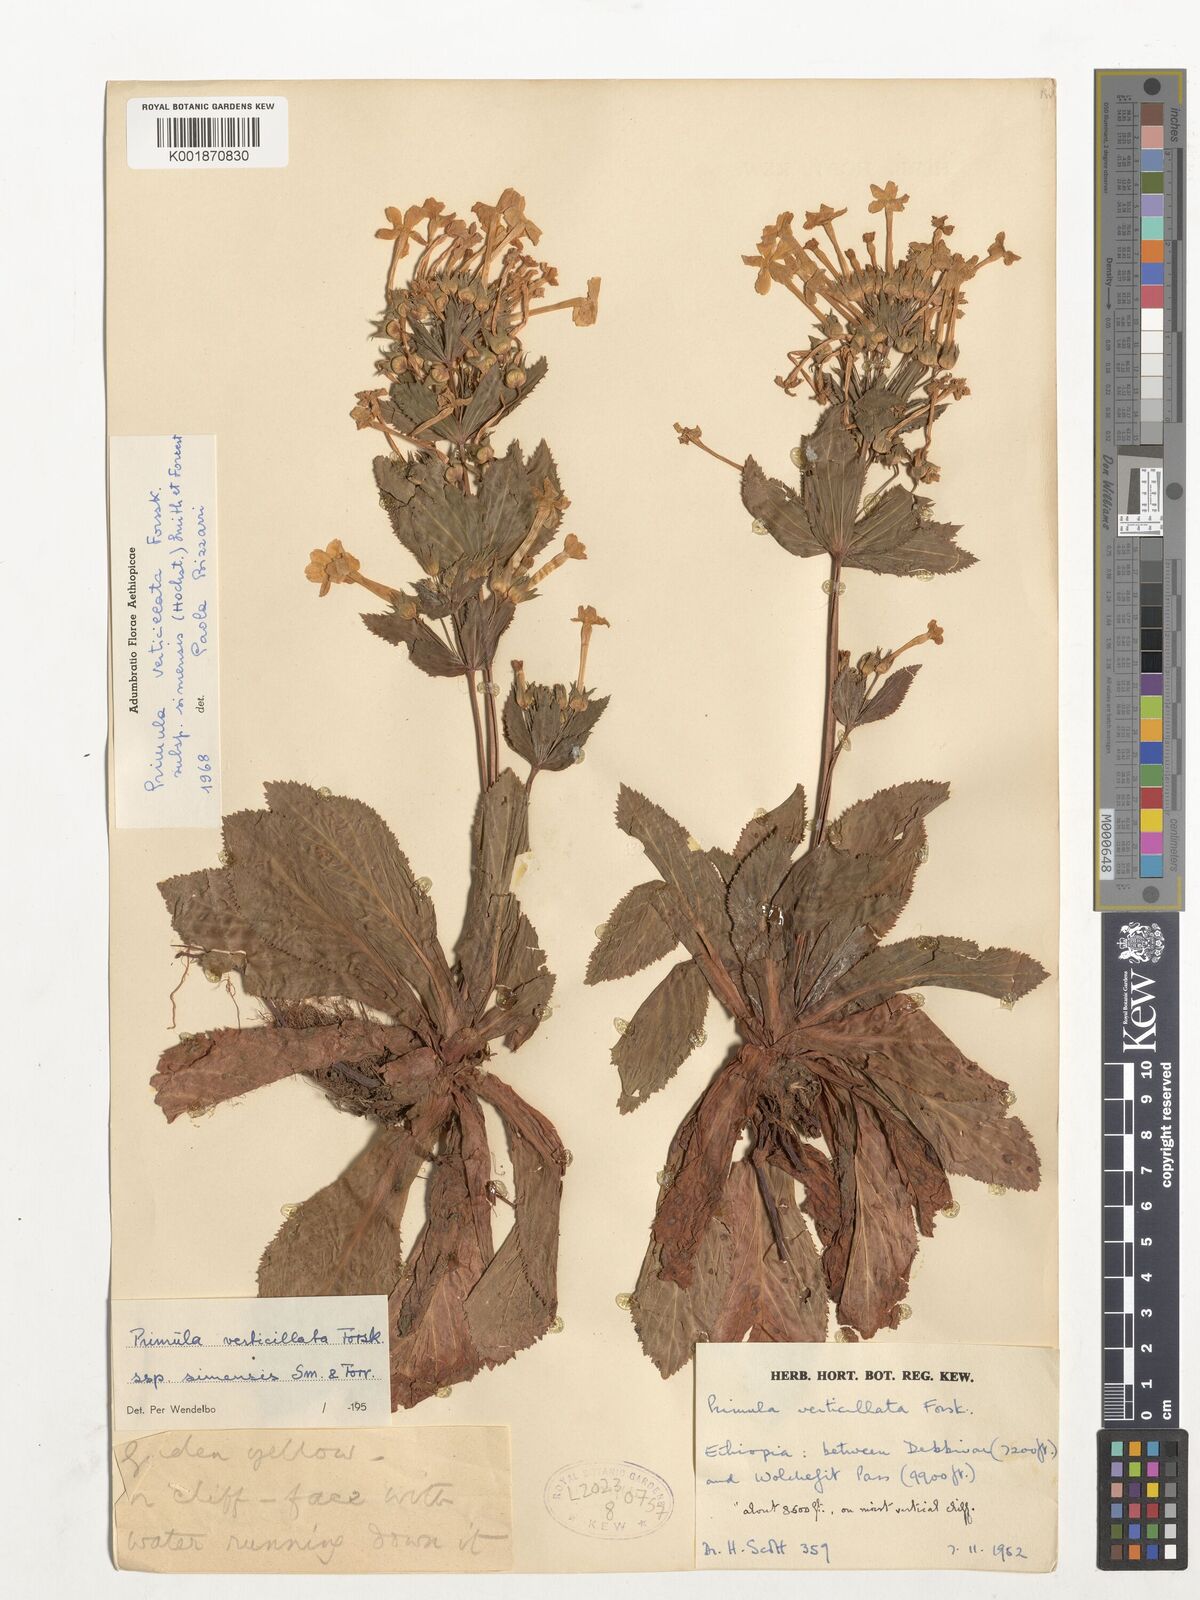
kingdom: Plantae
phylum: Tracheophyta
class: Magnoliopsida
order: Ericales
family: Primulaceae
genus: Evotrochis
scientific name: Evotrochis simensis
